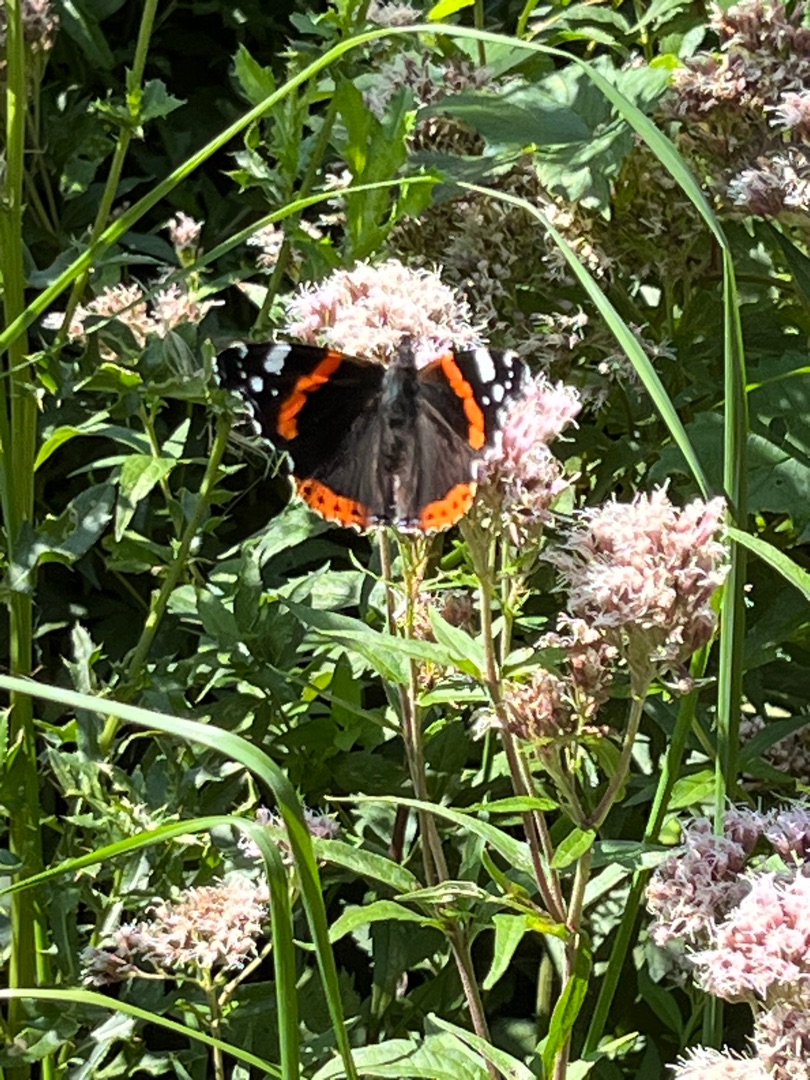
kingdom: Animalia
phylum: Arthropoda
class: Insecta
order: Lepidoptera
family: Nymphalidae
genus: Vanessa
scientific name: Vanessa atalanta
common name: Admiral
